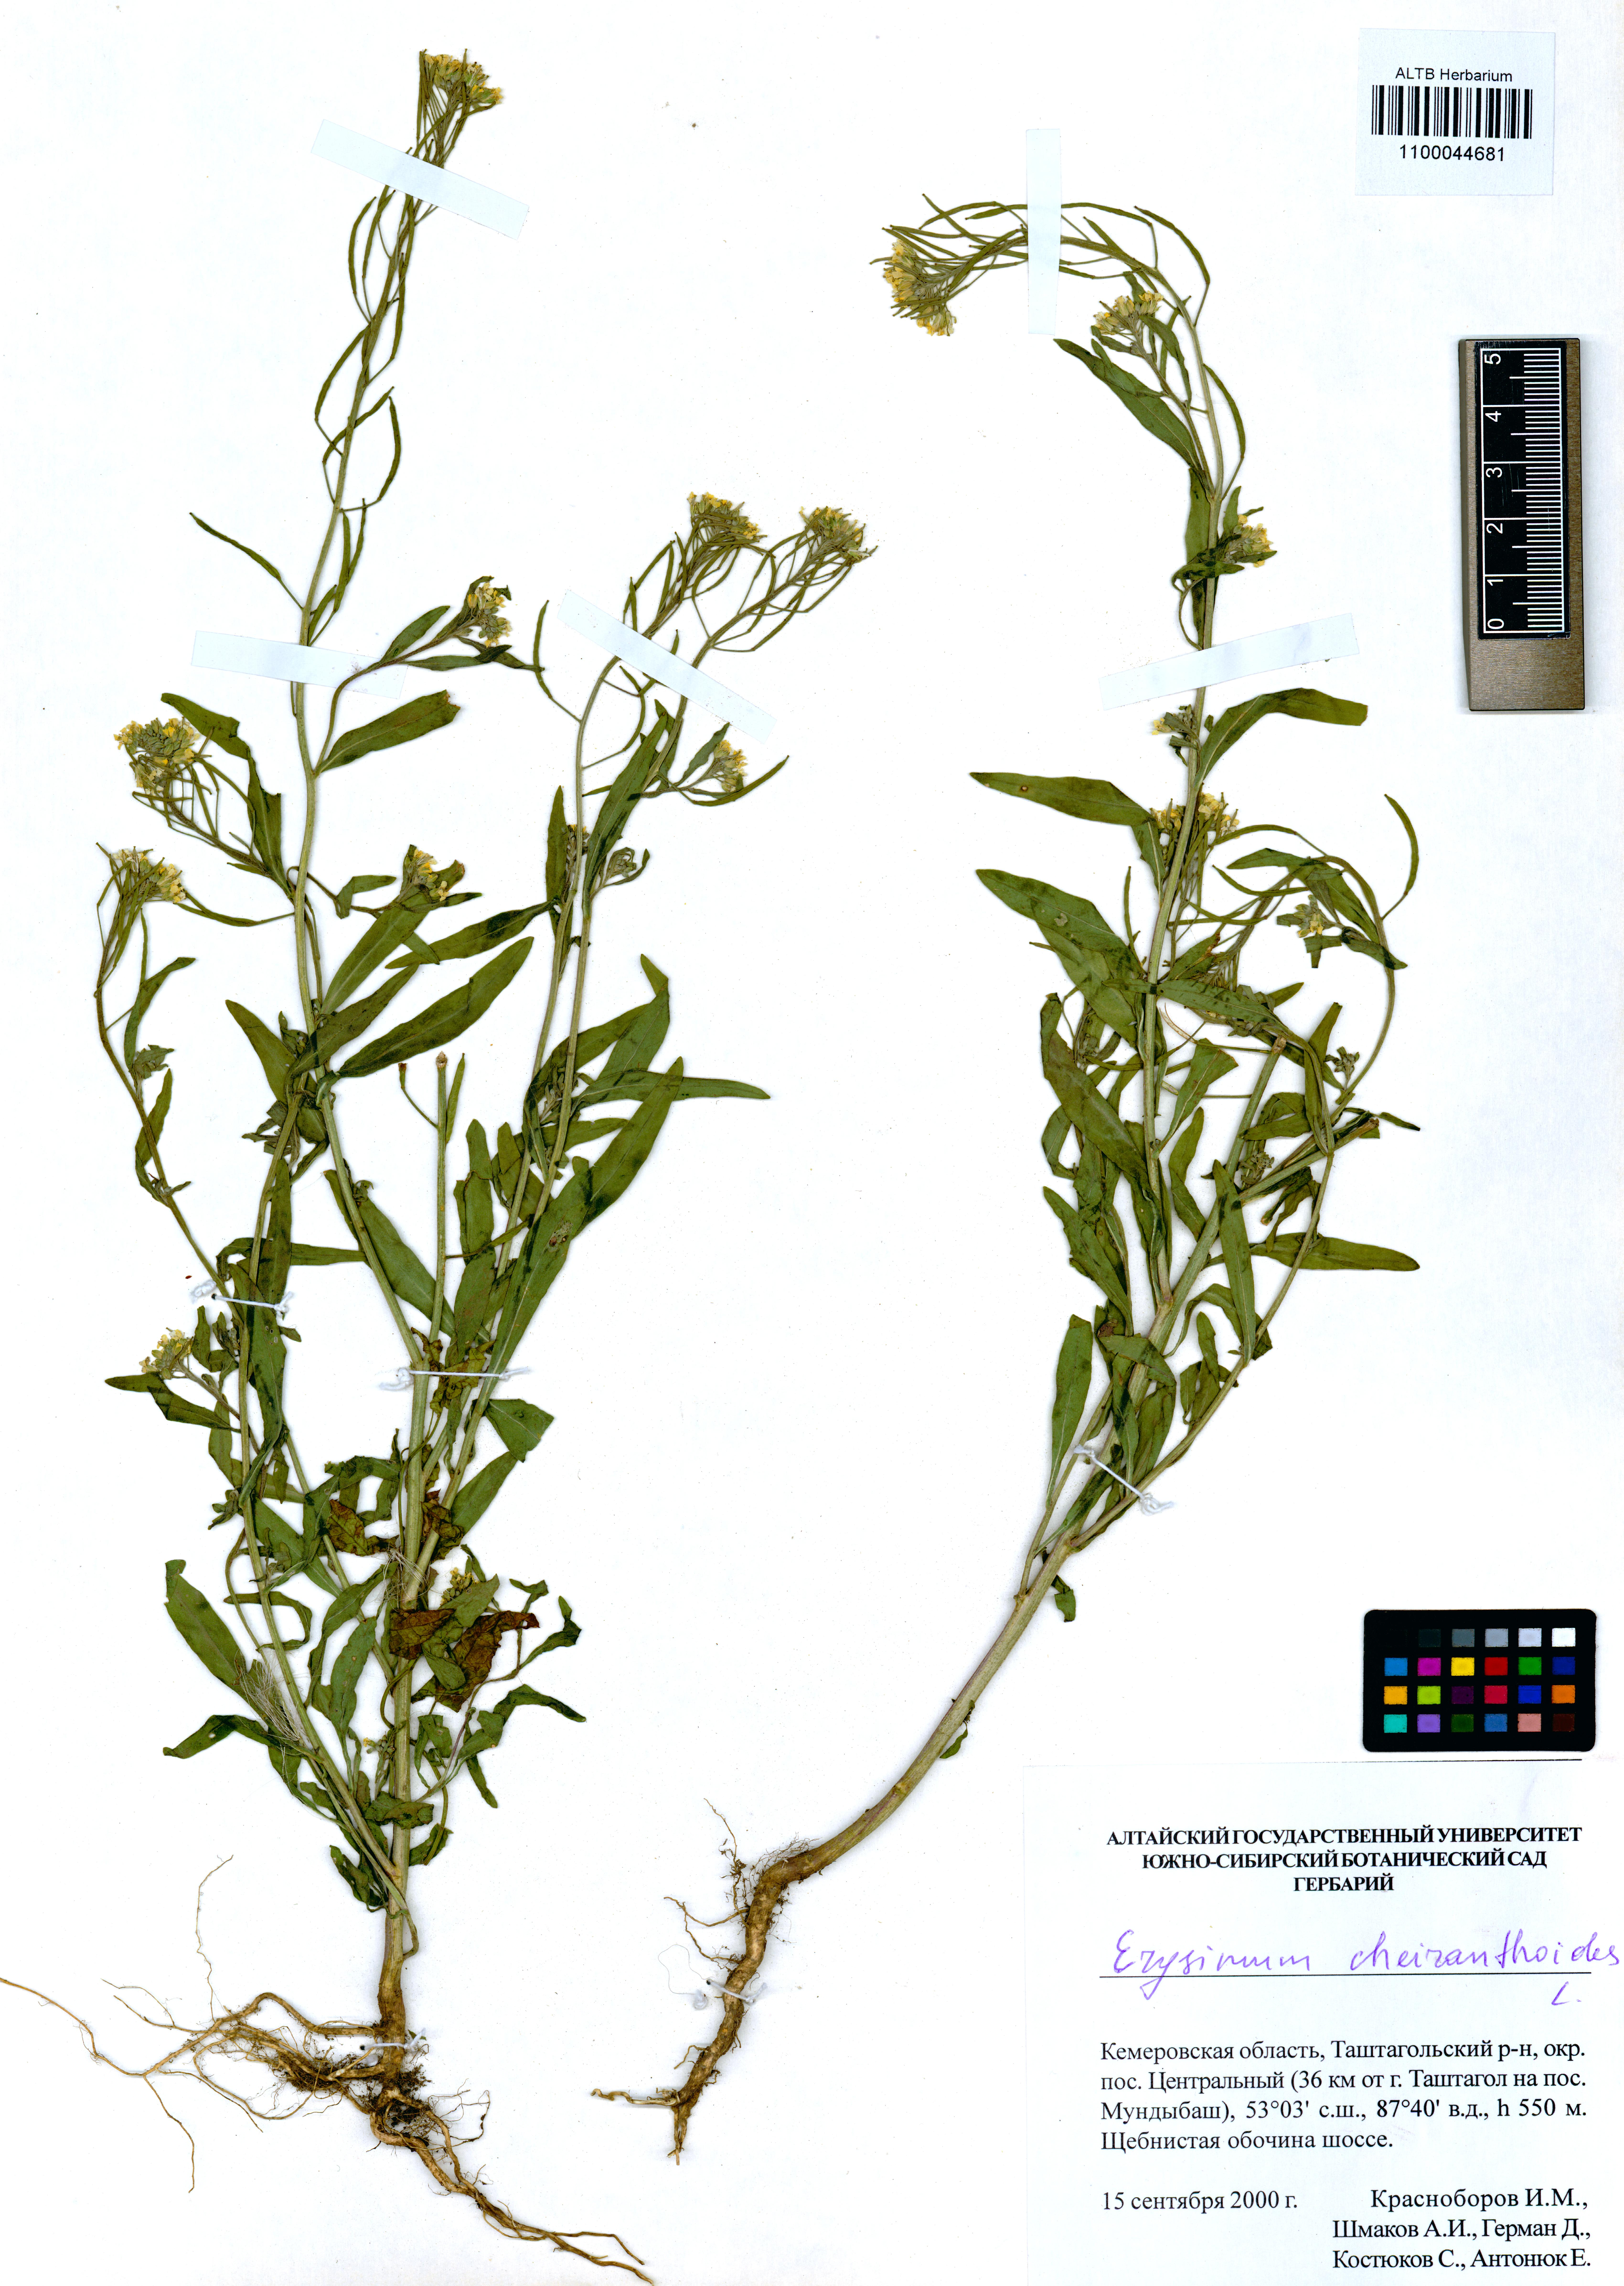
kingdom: Plantae
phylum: Tracheophyta
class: Magnoliopsida
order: Brassicales
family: Brassicaceae
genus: Erysimum
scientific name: Erysimum cheiranthoides
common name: Treacle mustard
